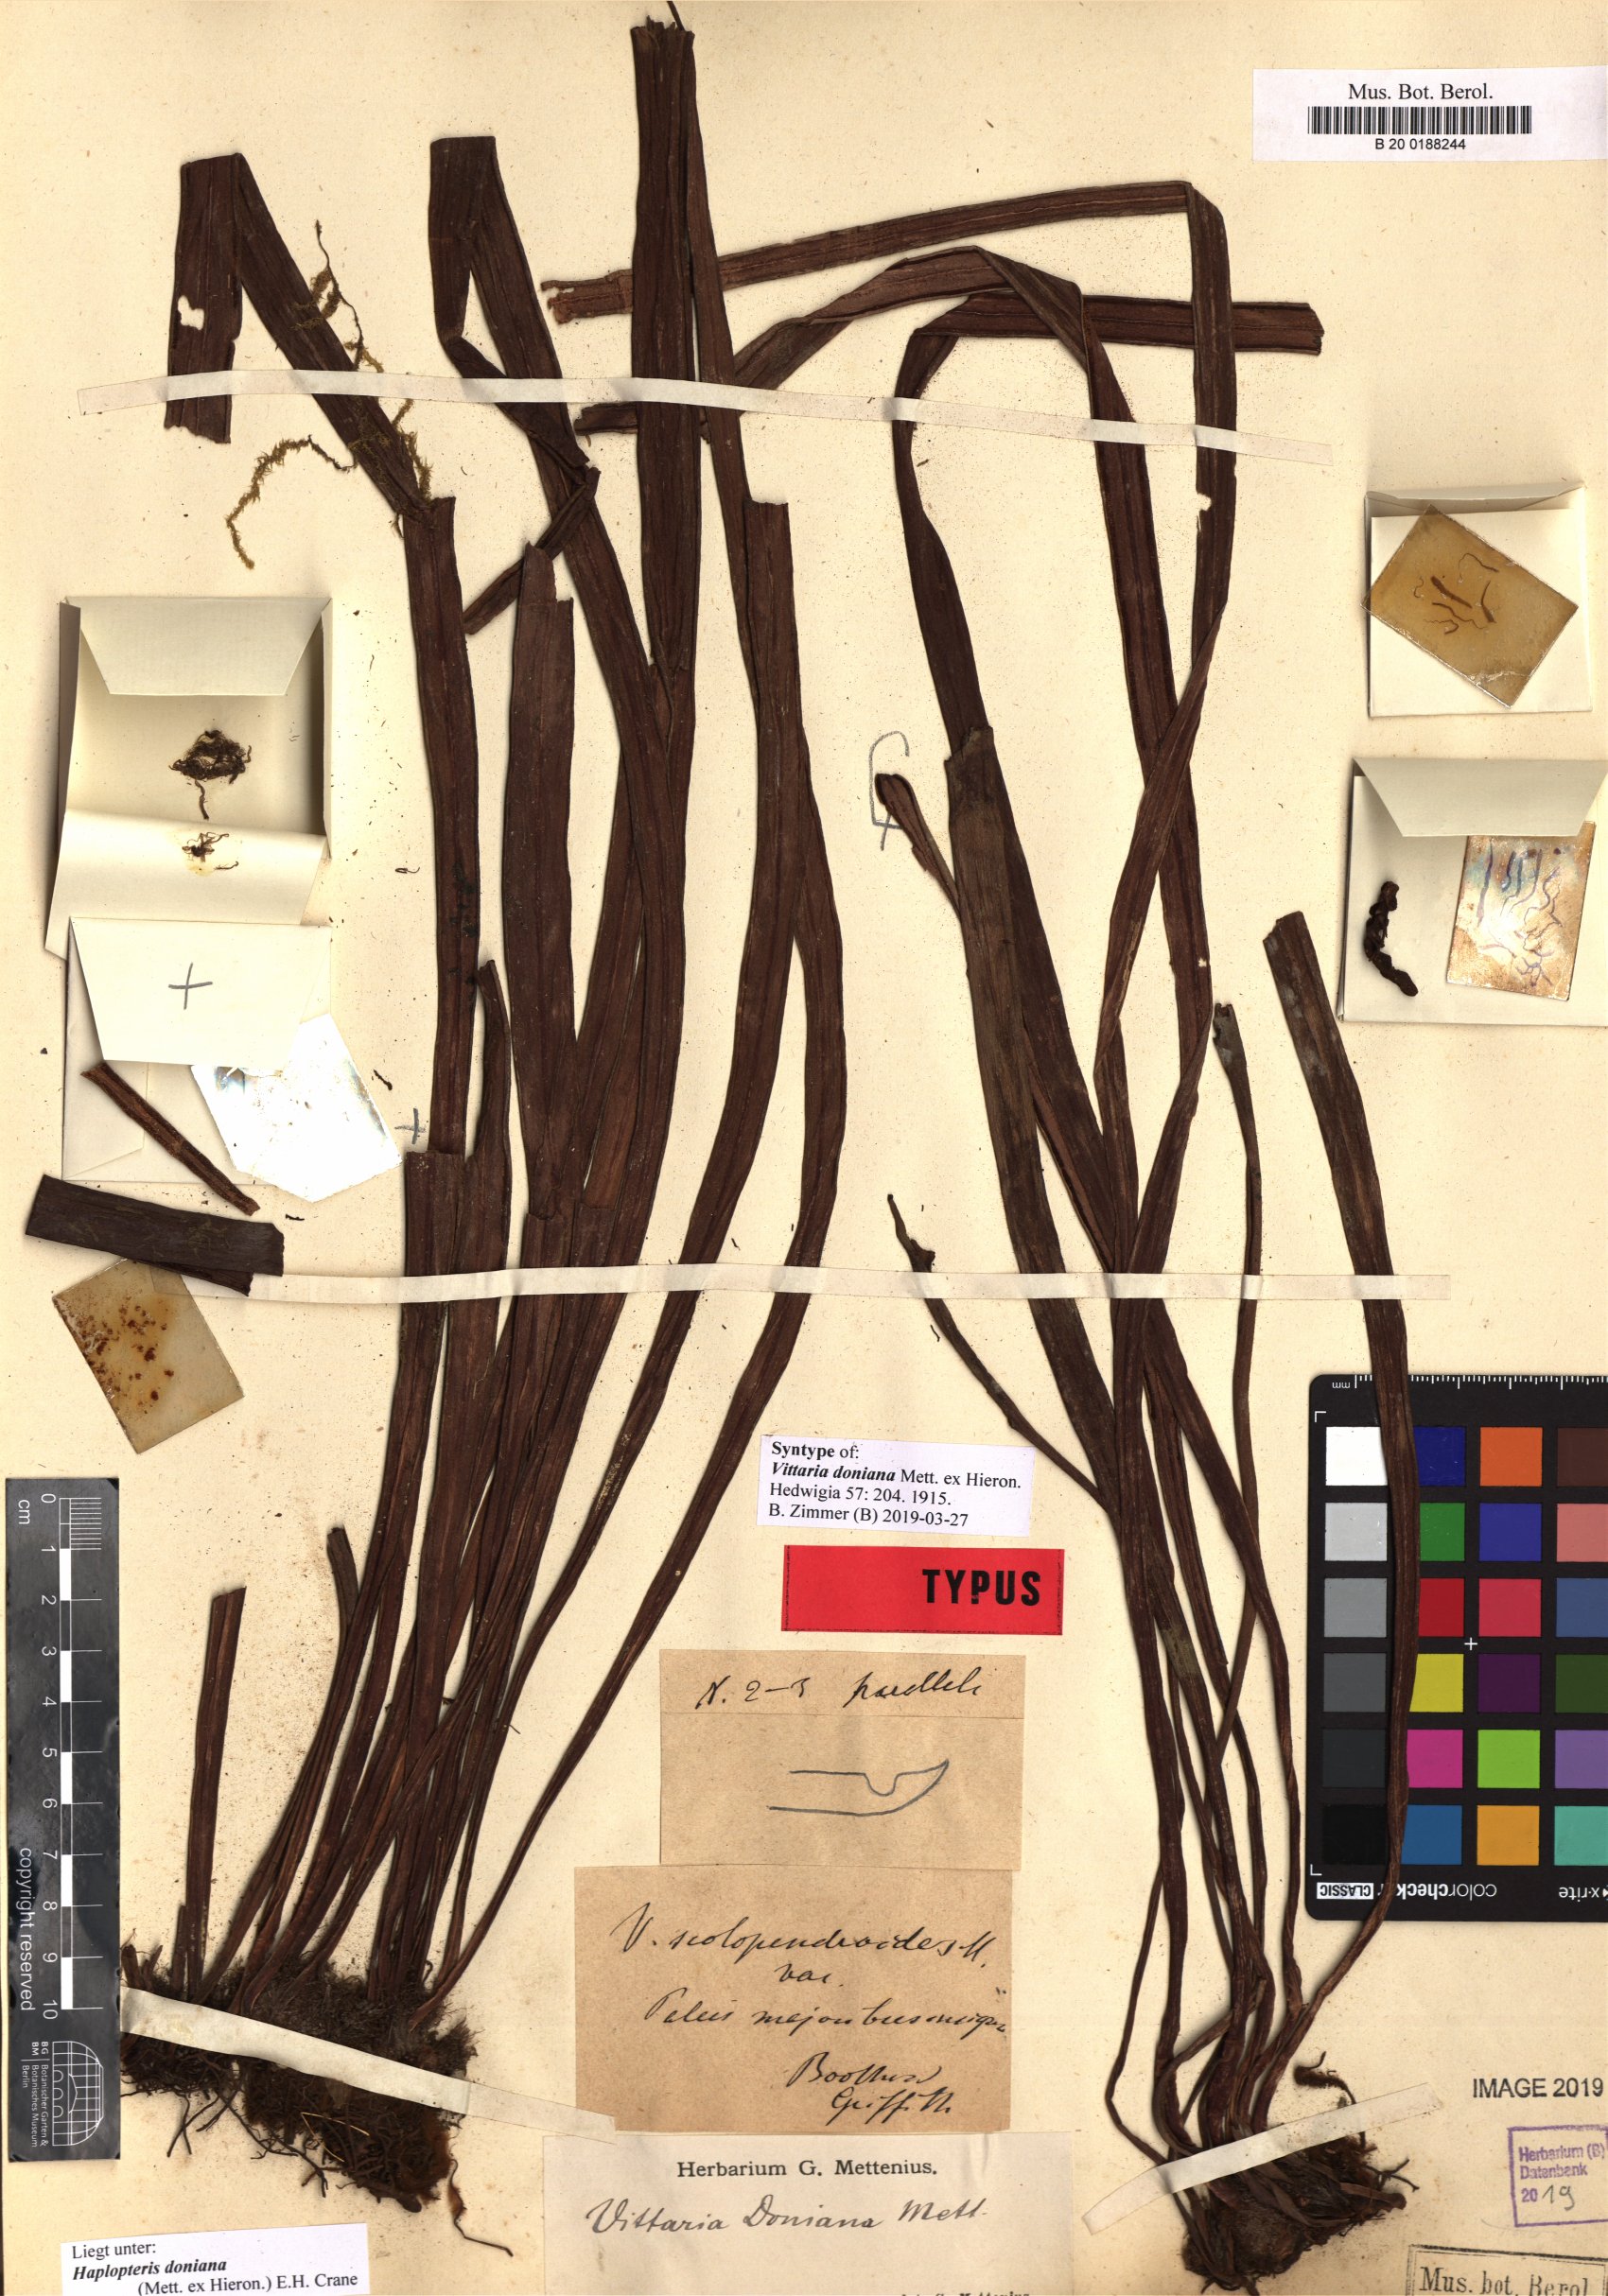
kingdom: Plantae
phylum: Tracheophyta
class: Polypodiopsida
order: Polypodiales
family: Pteridaceae
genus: Haplopteris
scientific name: Haplopteris taeniophylla
